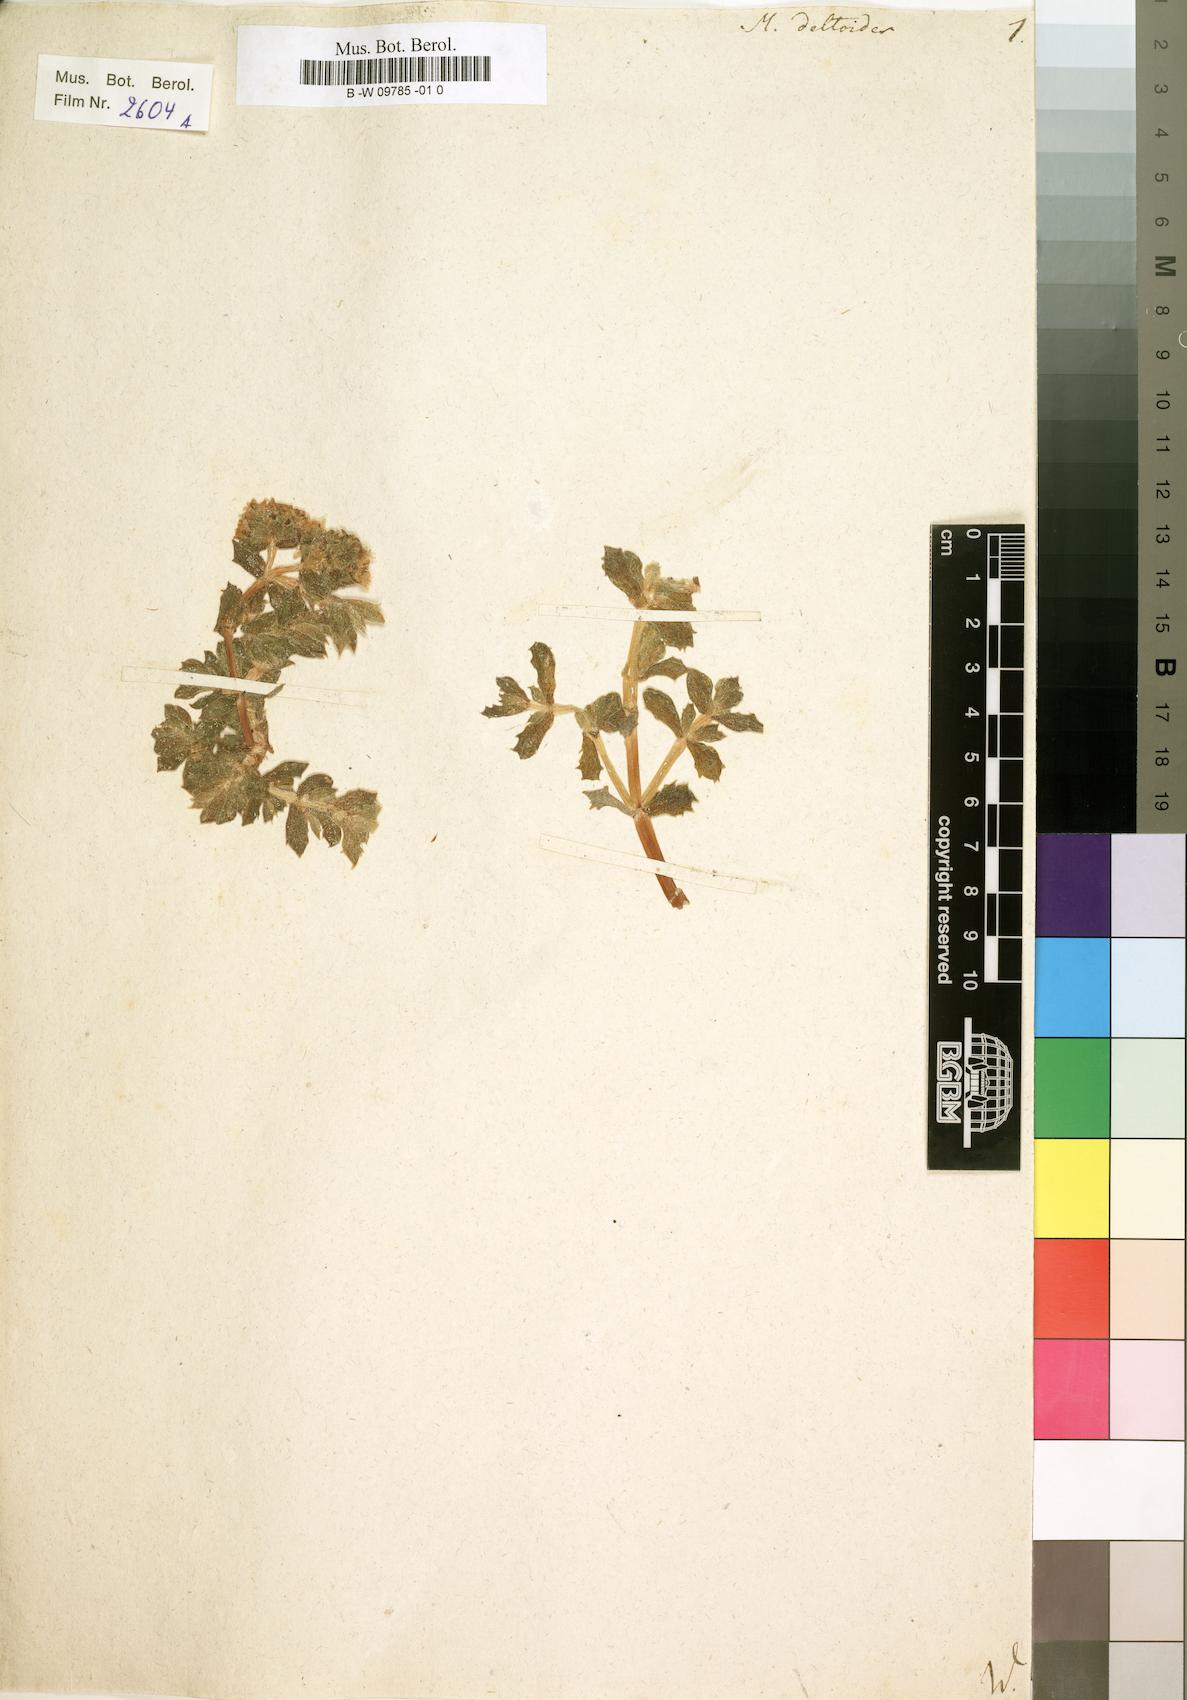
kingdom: Plantae
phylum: Tracheophyta
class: Magnoliopsida
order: Caryophyllales
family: Aizoaceae
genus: Oscularia
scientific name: Oscularia deltoides
